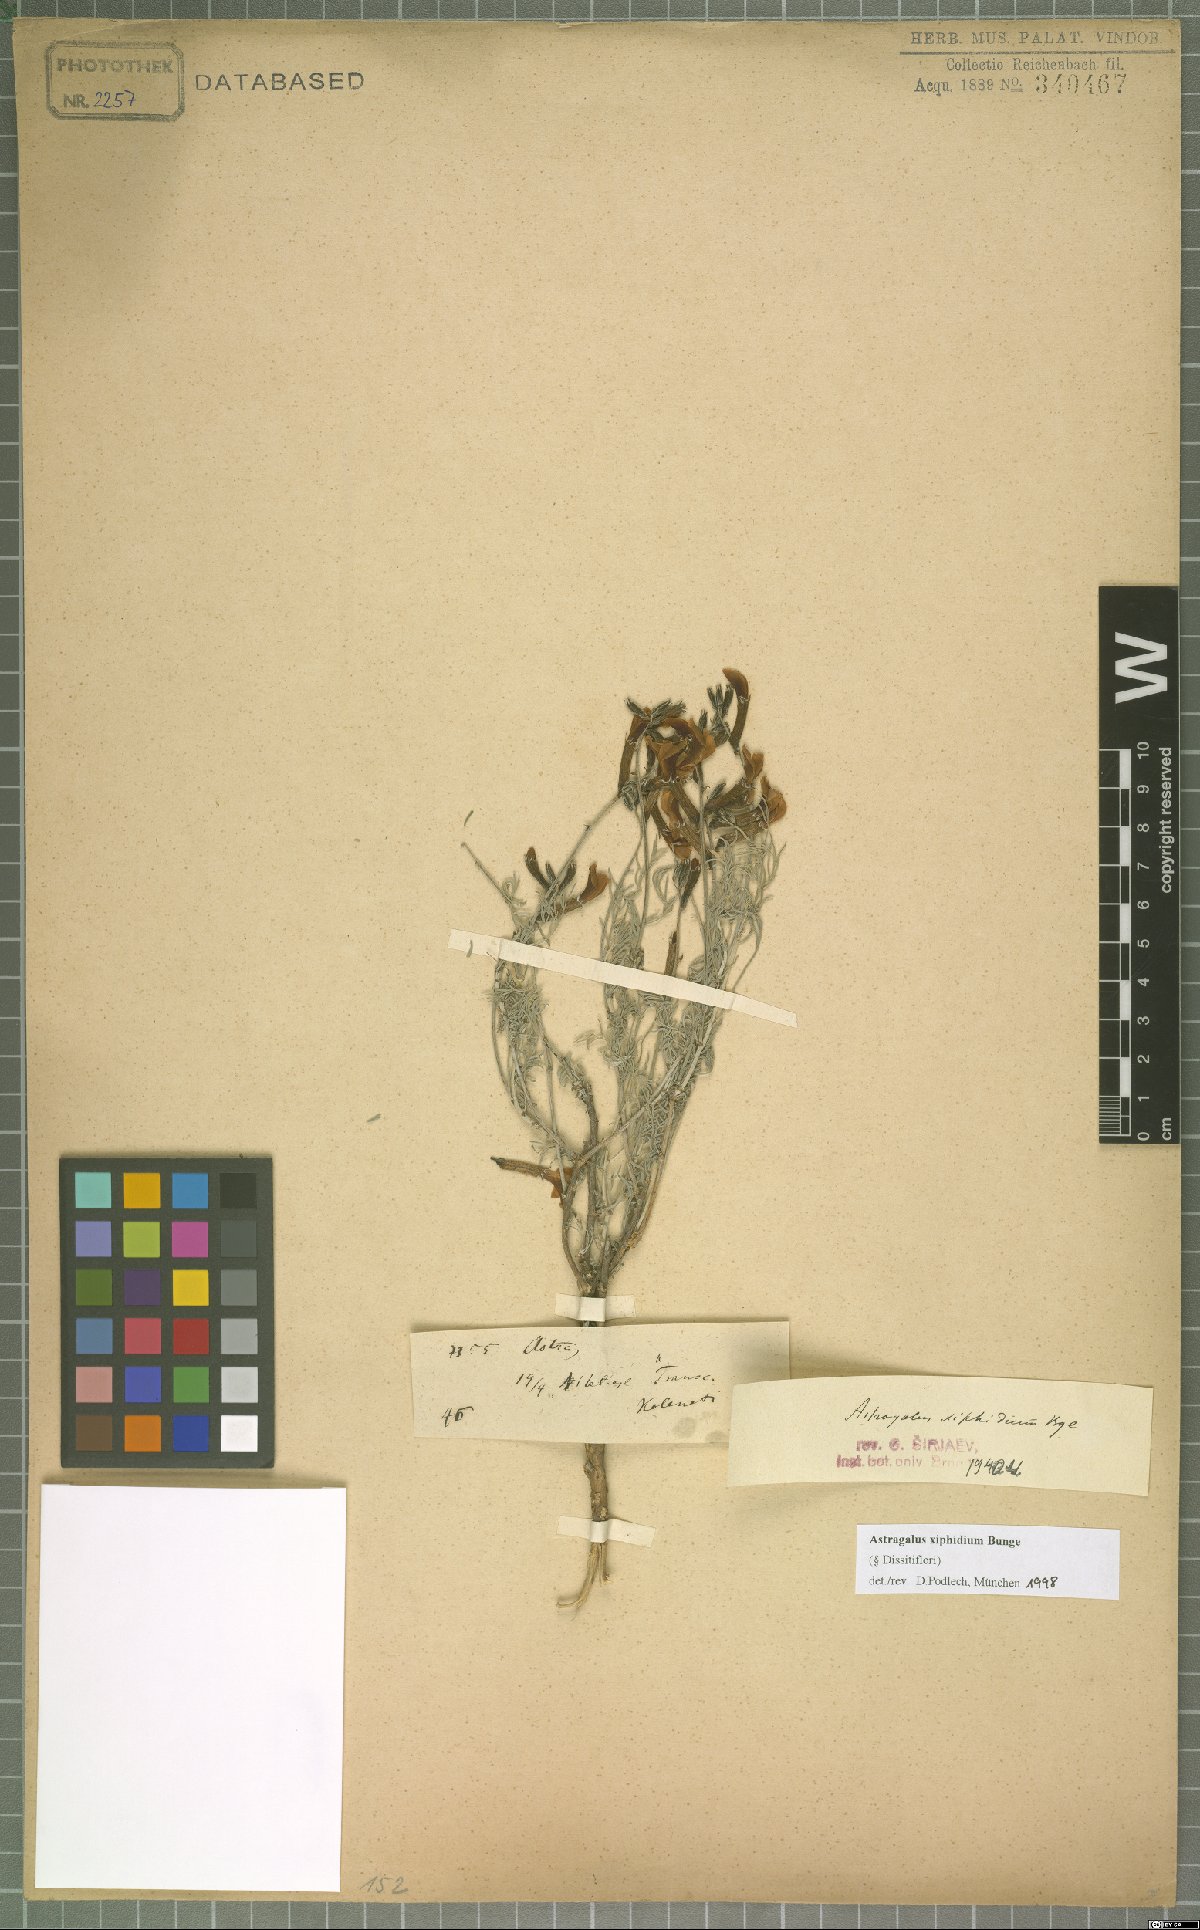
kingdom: Plantae
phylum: Tracheophyta
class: Magnoliopsida
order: Fabales
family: Fabaceae
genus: Astragalus
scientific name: Astragalus xiphidium
